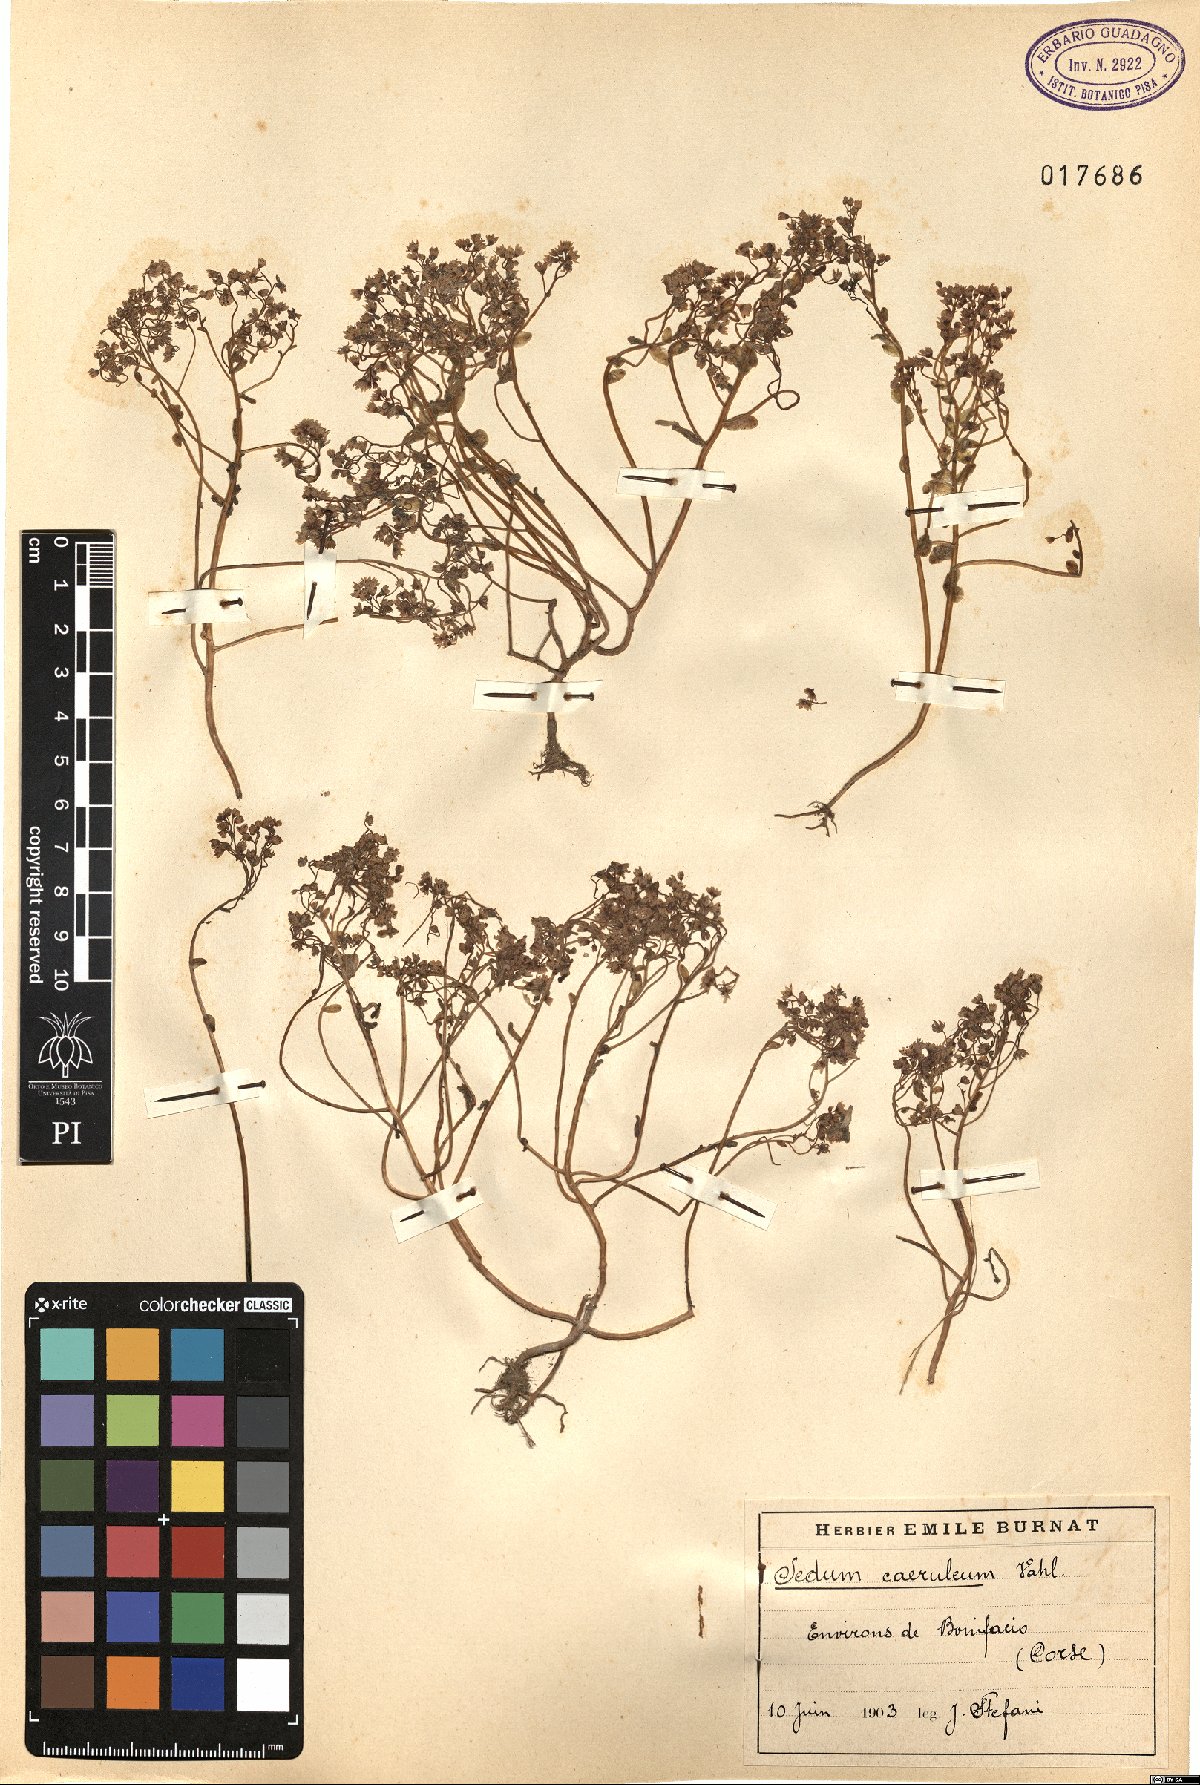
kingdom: Plantae
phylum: Tracheophyta
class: Magnoliopsida
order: Saxifragales
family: Crassulaceae
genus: Sedum
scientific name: Sedum caeruleum
